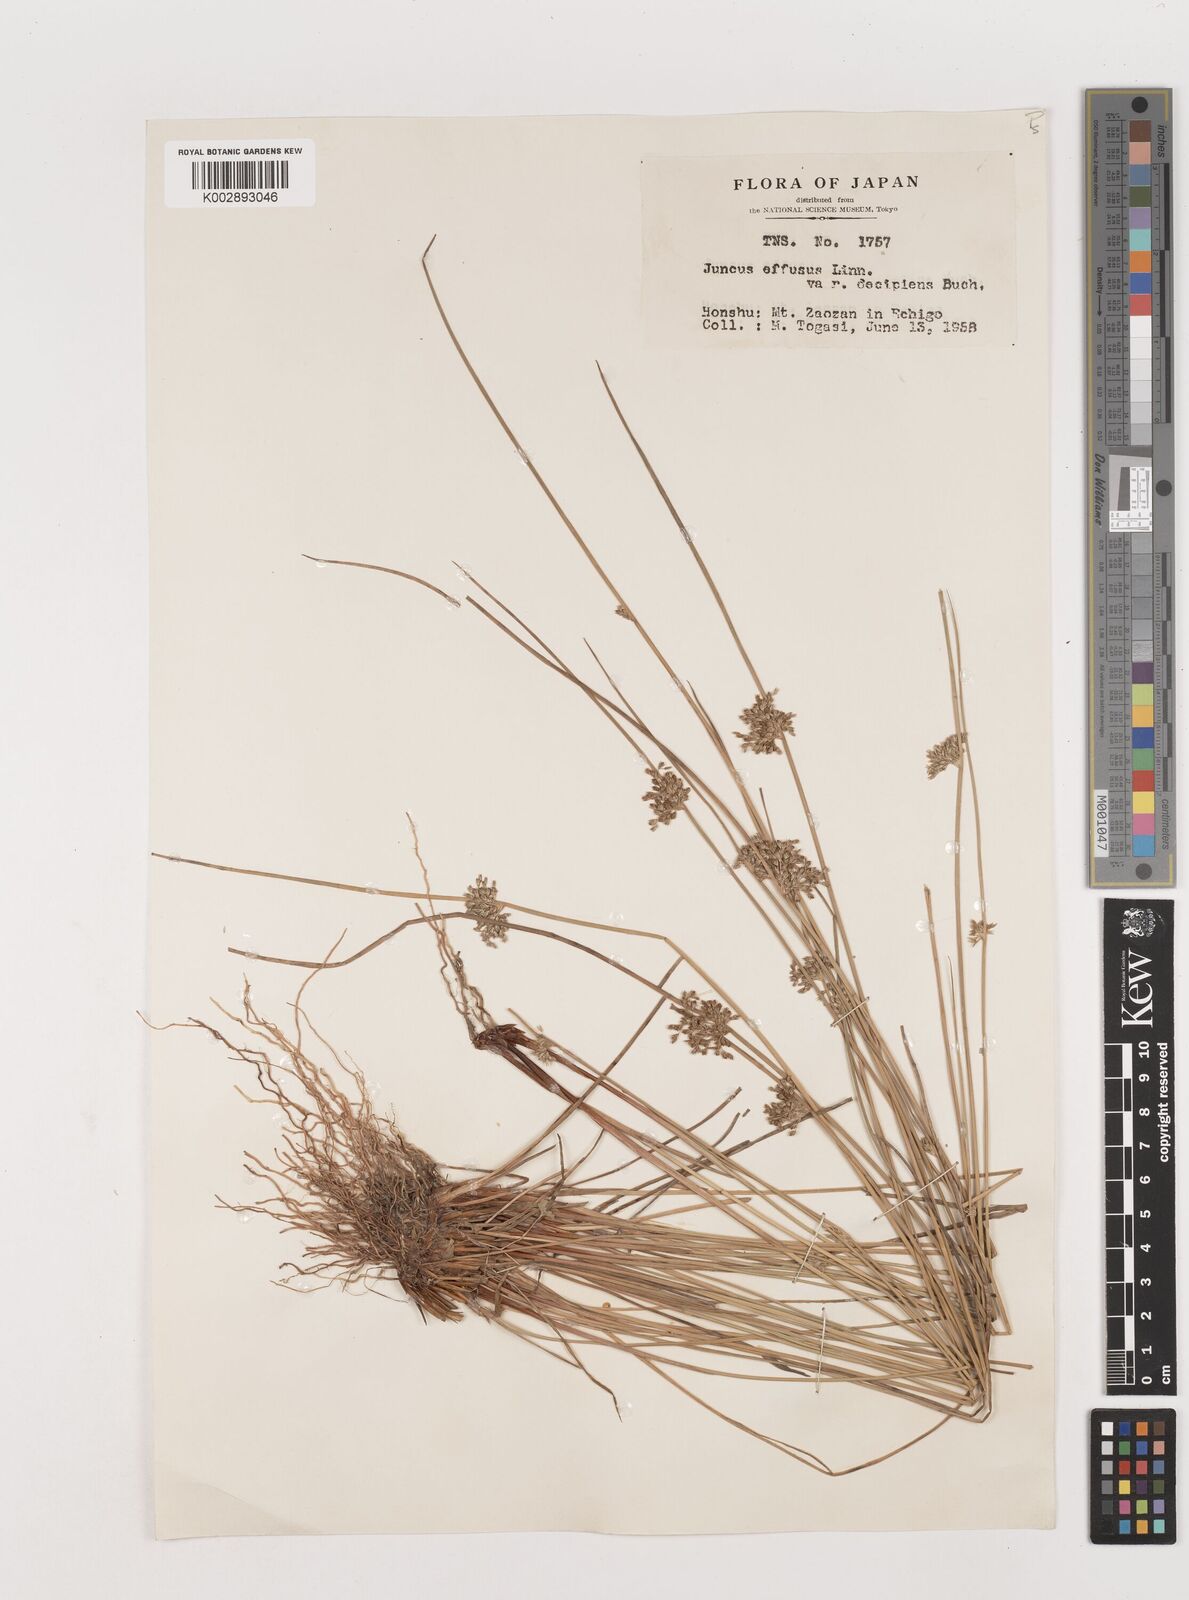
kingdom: Plantae
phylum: Tracheophyta
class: Liliopsida
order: Poales
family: Juncaceae
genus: Juncus
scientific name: Juncus decipiens
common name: Lamp rush
